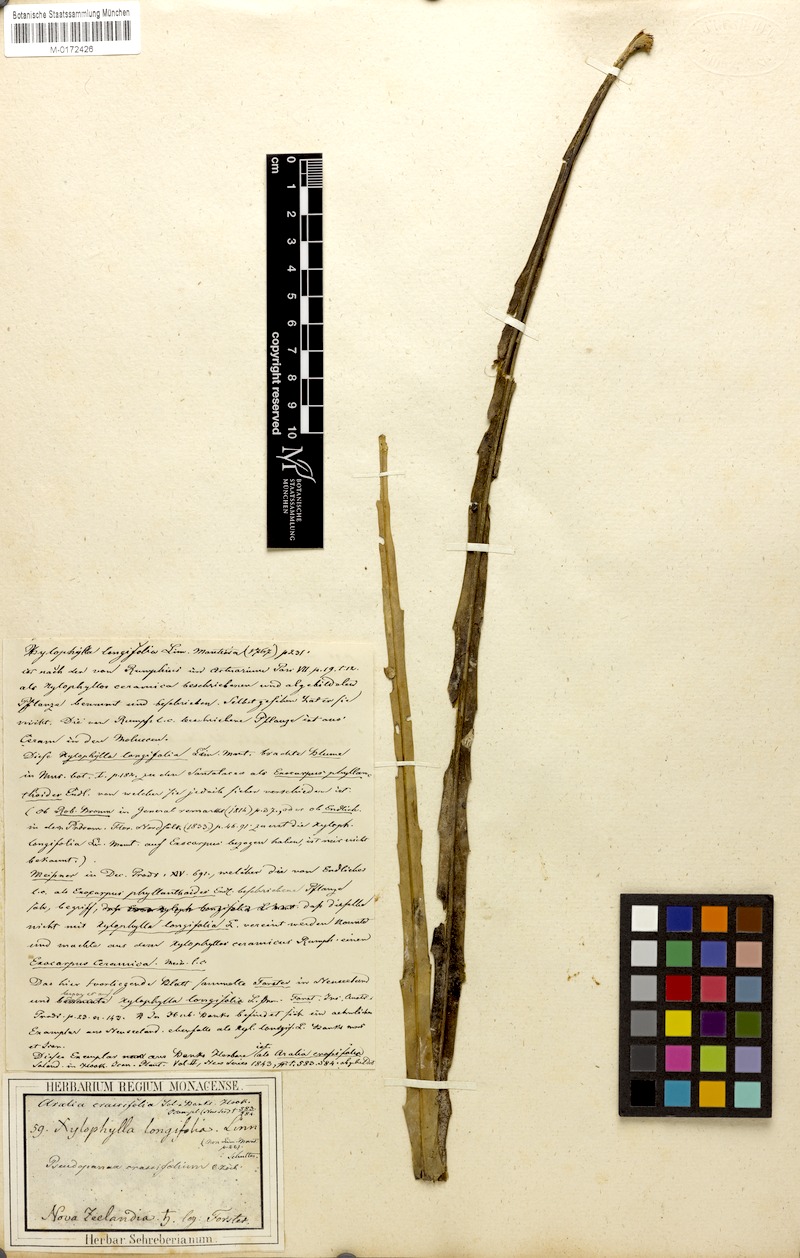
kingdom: Plantae
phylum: Tracheophyta
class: Magnoliopsida
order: Apiales
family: Araliaceae
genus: Pseudopanax
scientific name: Pseudopanax crassifolius
